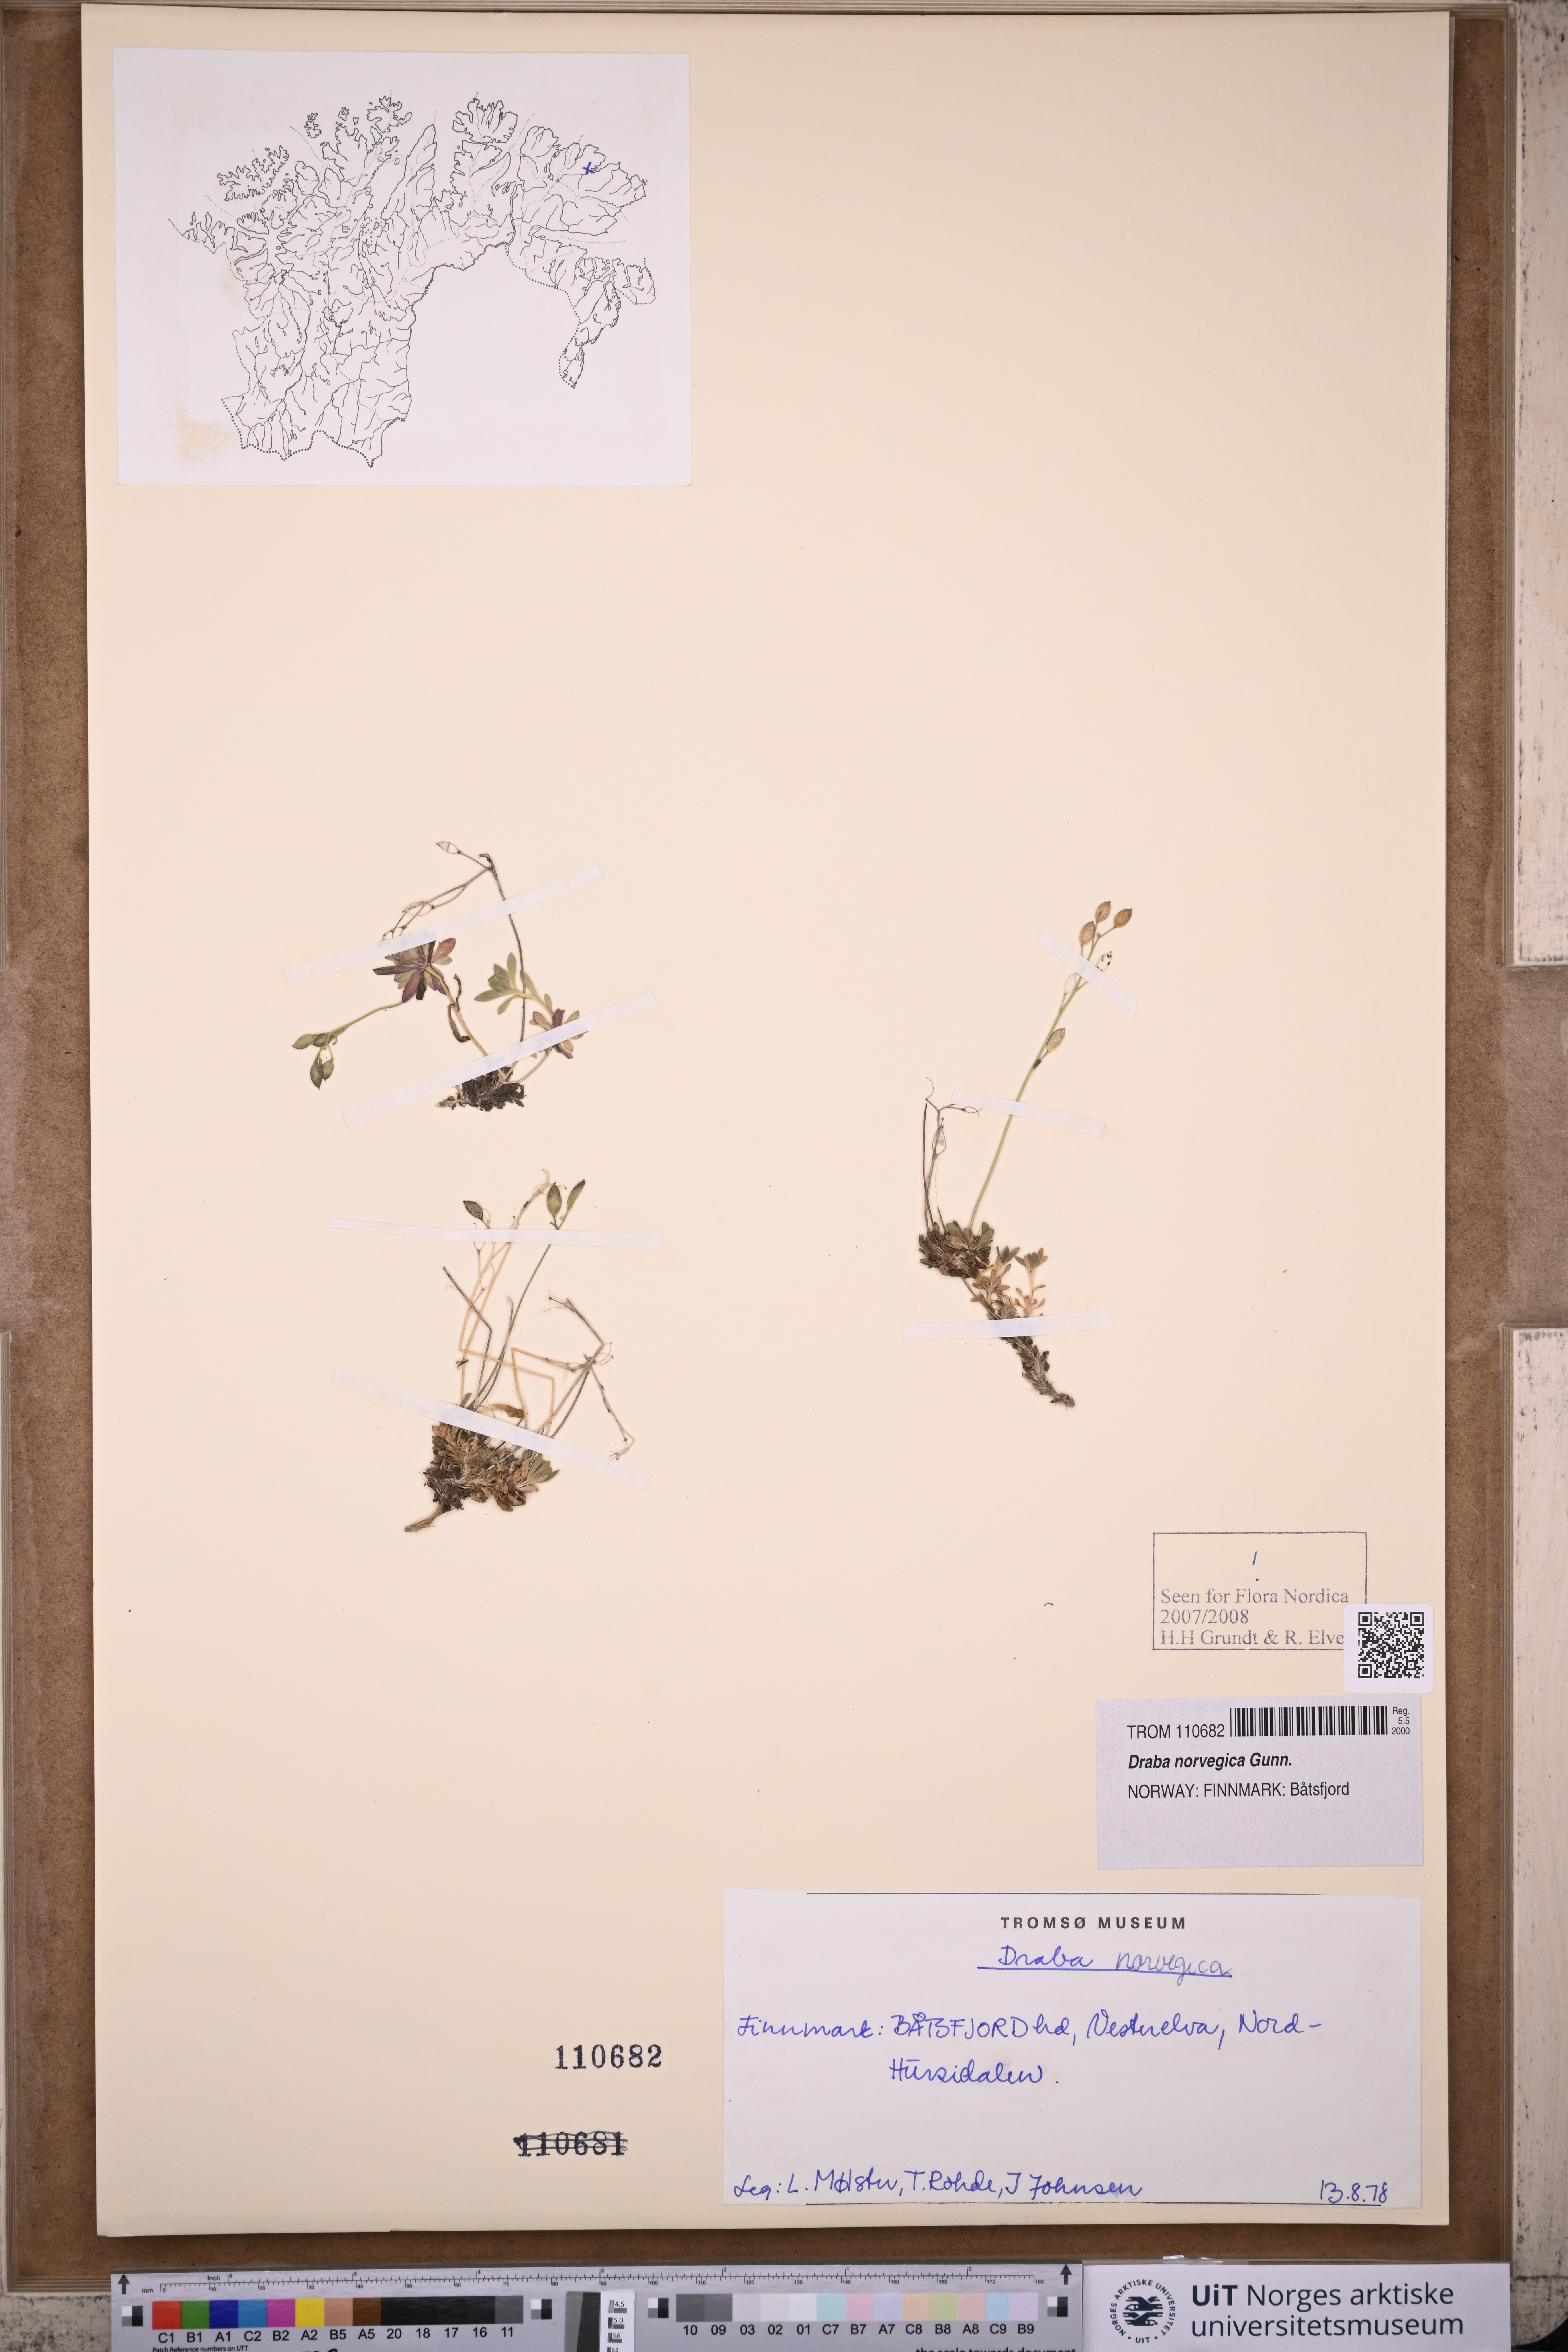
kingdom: Plantae
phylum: Tracheophyta
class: Magnoliopsida
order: Brassicales
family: Brassicaceae
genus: Draba
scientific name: Draba norvegica
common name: Rock whitlowgrass
